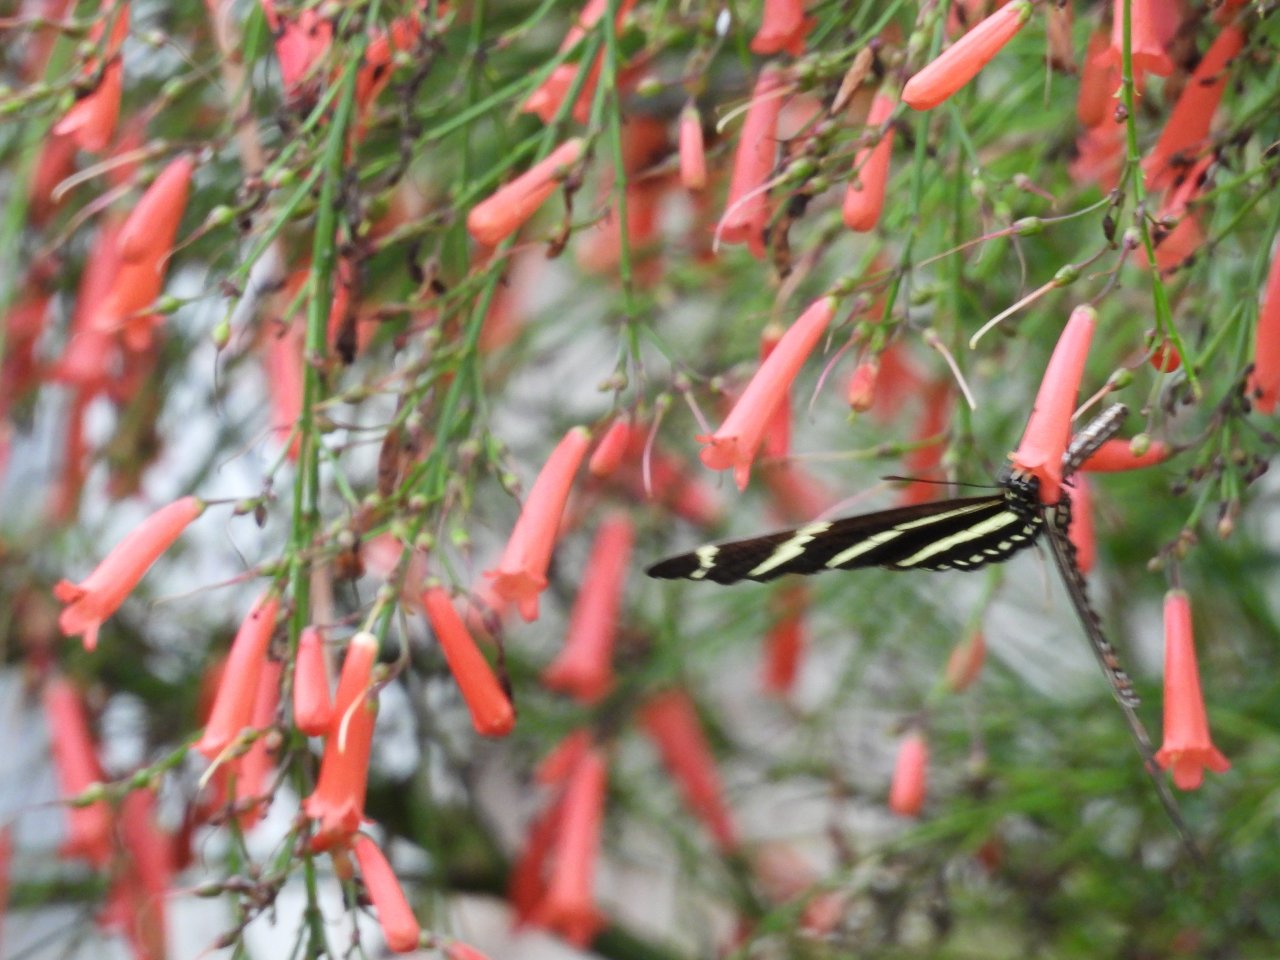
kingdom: Animalia
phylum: Arthropoda
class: Insecta
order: Lepidoptera
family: Nymphalidae
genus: Heliconius
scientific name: Heliconius charithonia
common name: Zebra Longwing
